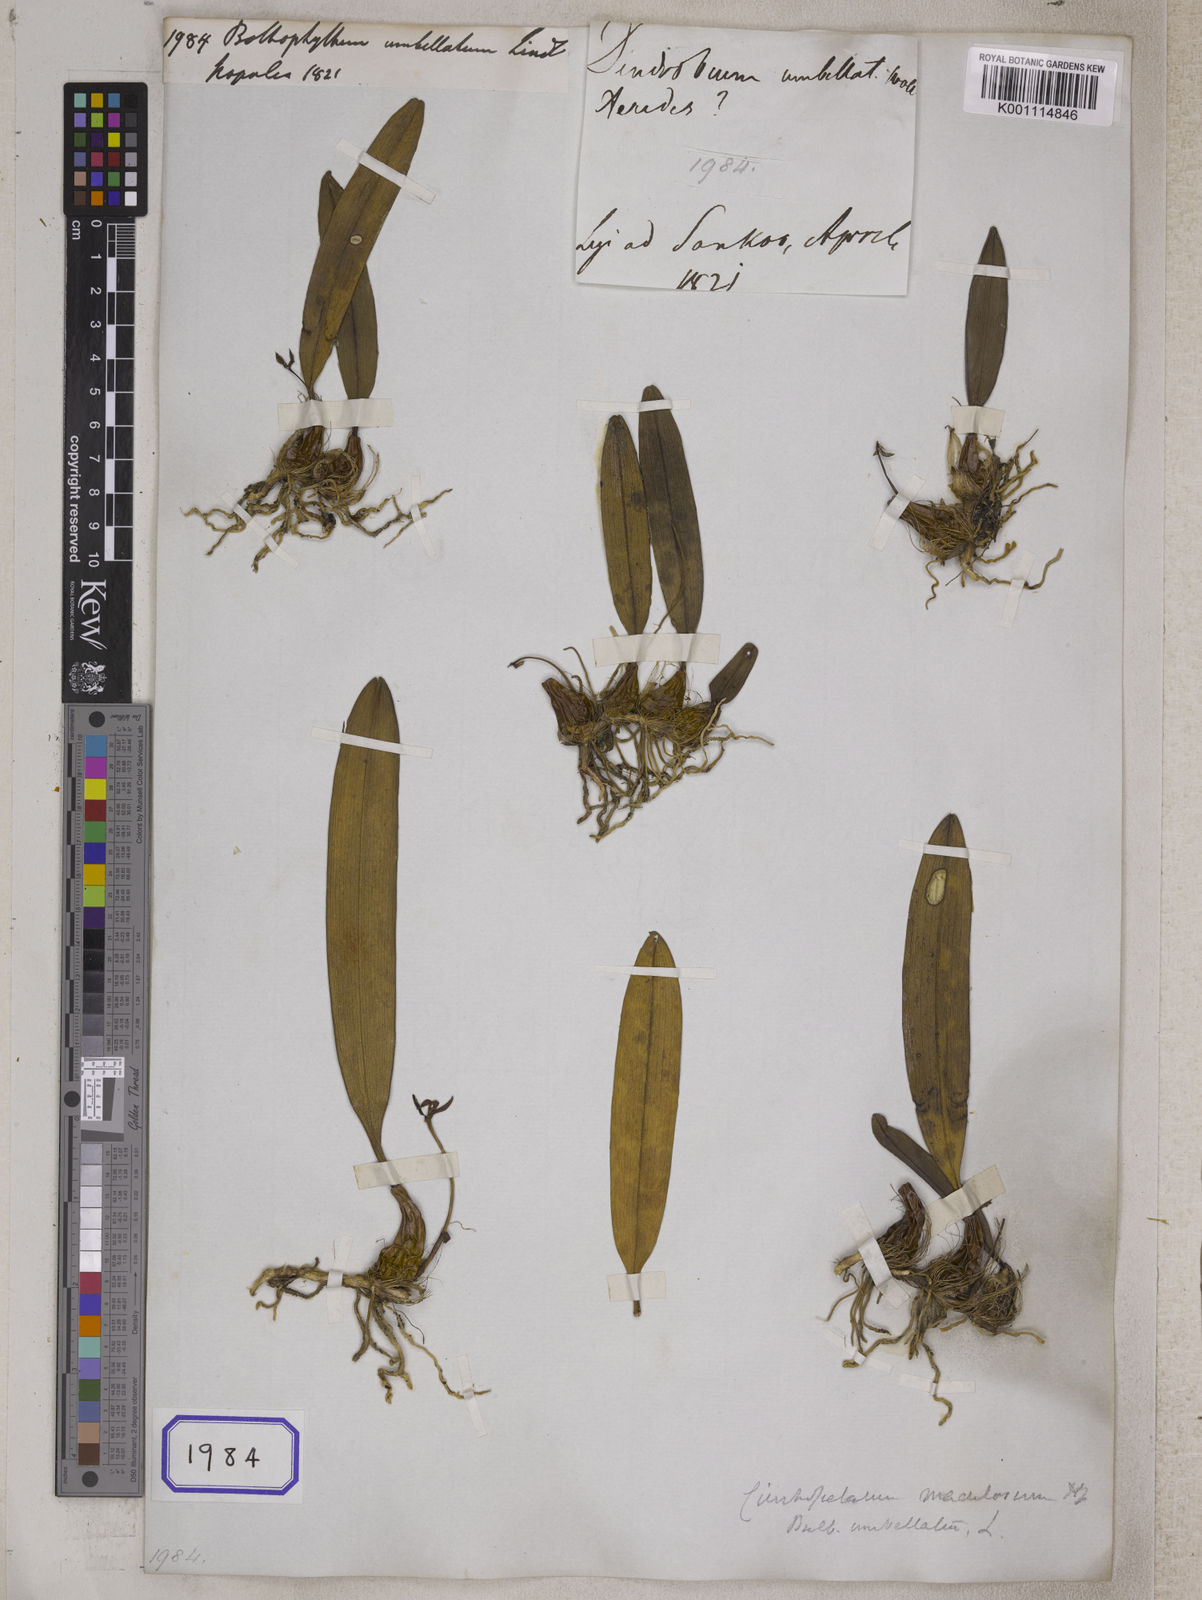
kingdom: Plantae
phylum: Tracheophyta
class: Liliopsida
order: Asparagales
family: Orchidaceae
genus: Bulbophyllum
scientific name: Bulbophyllum umbellatum
